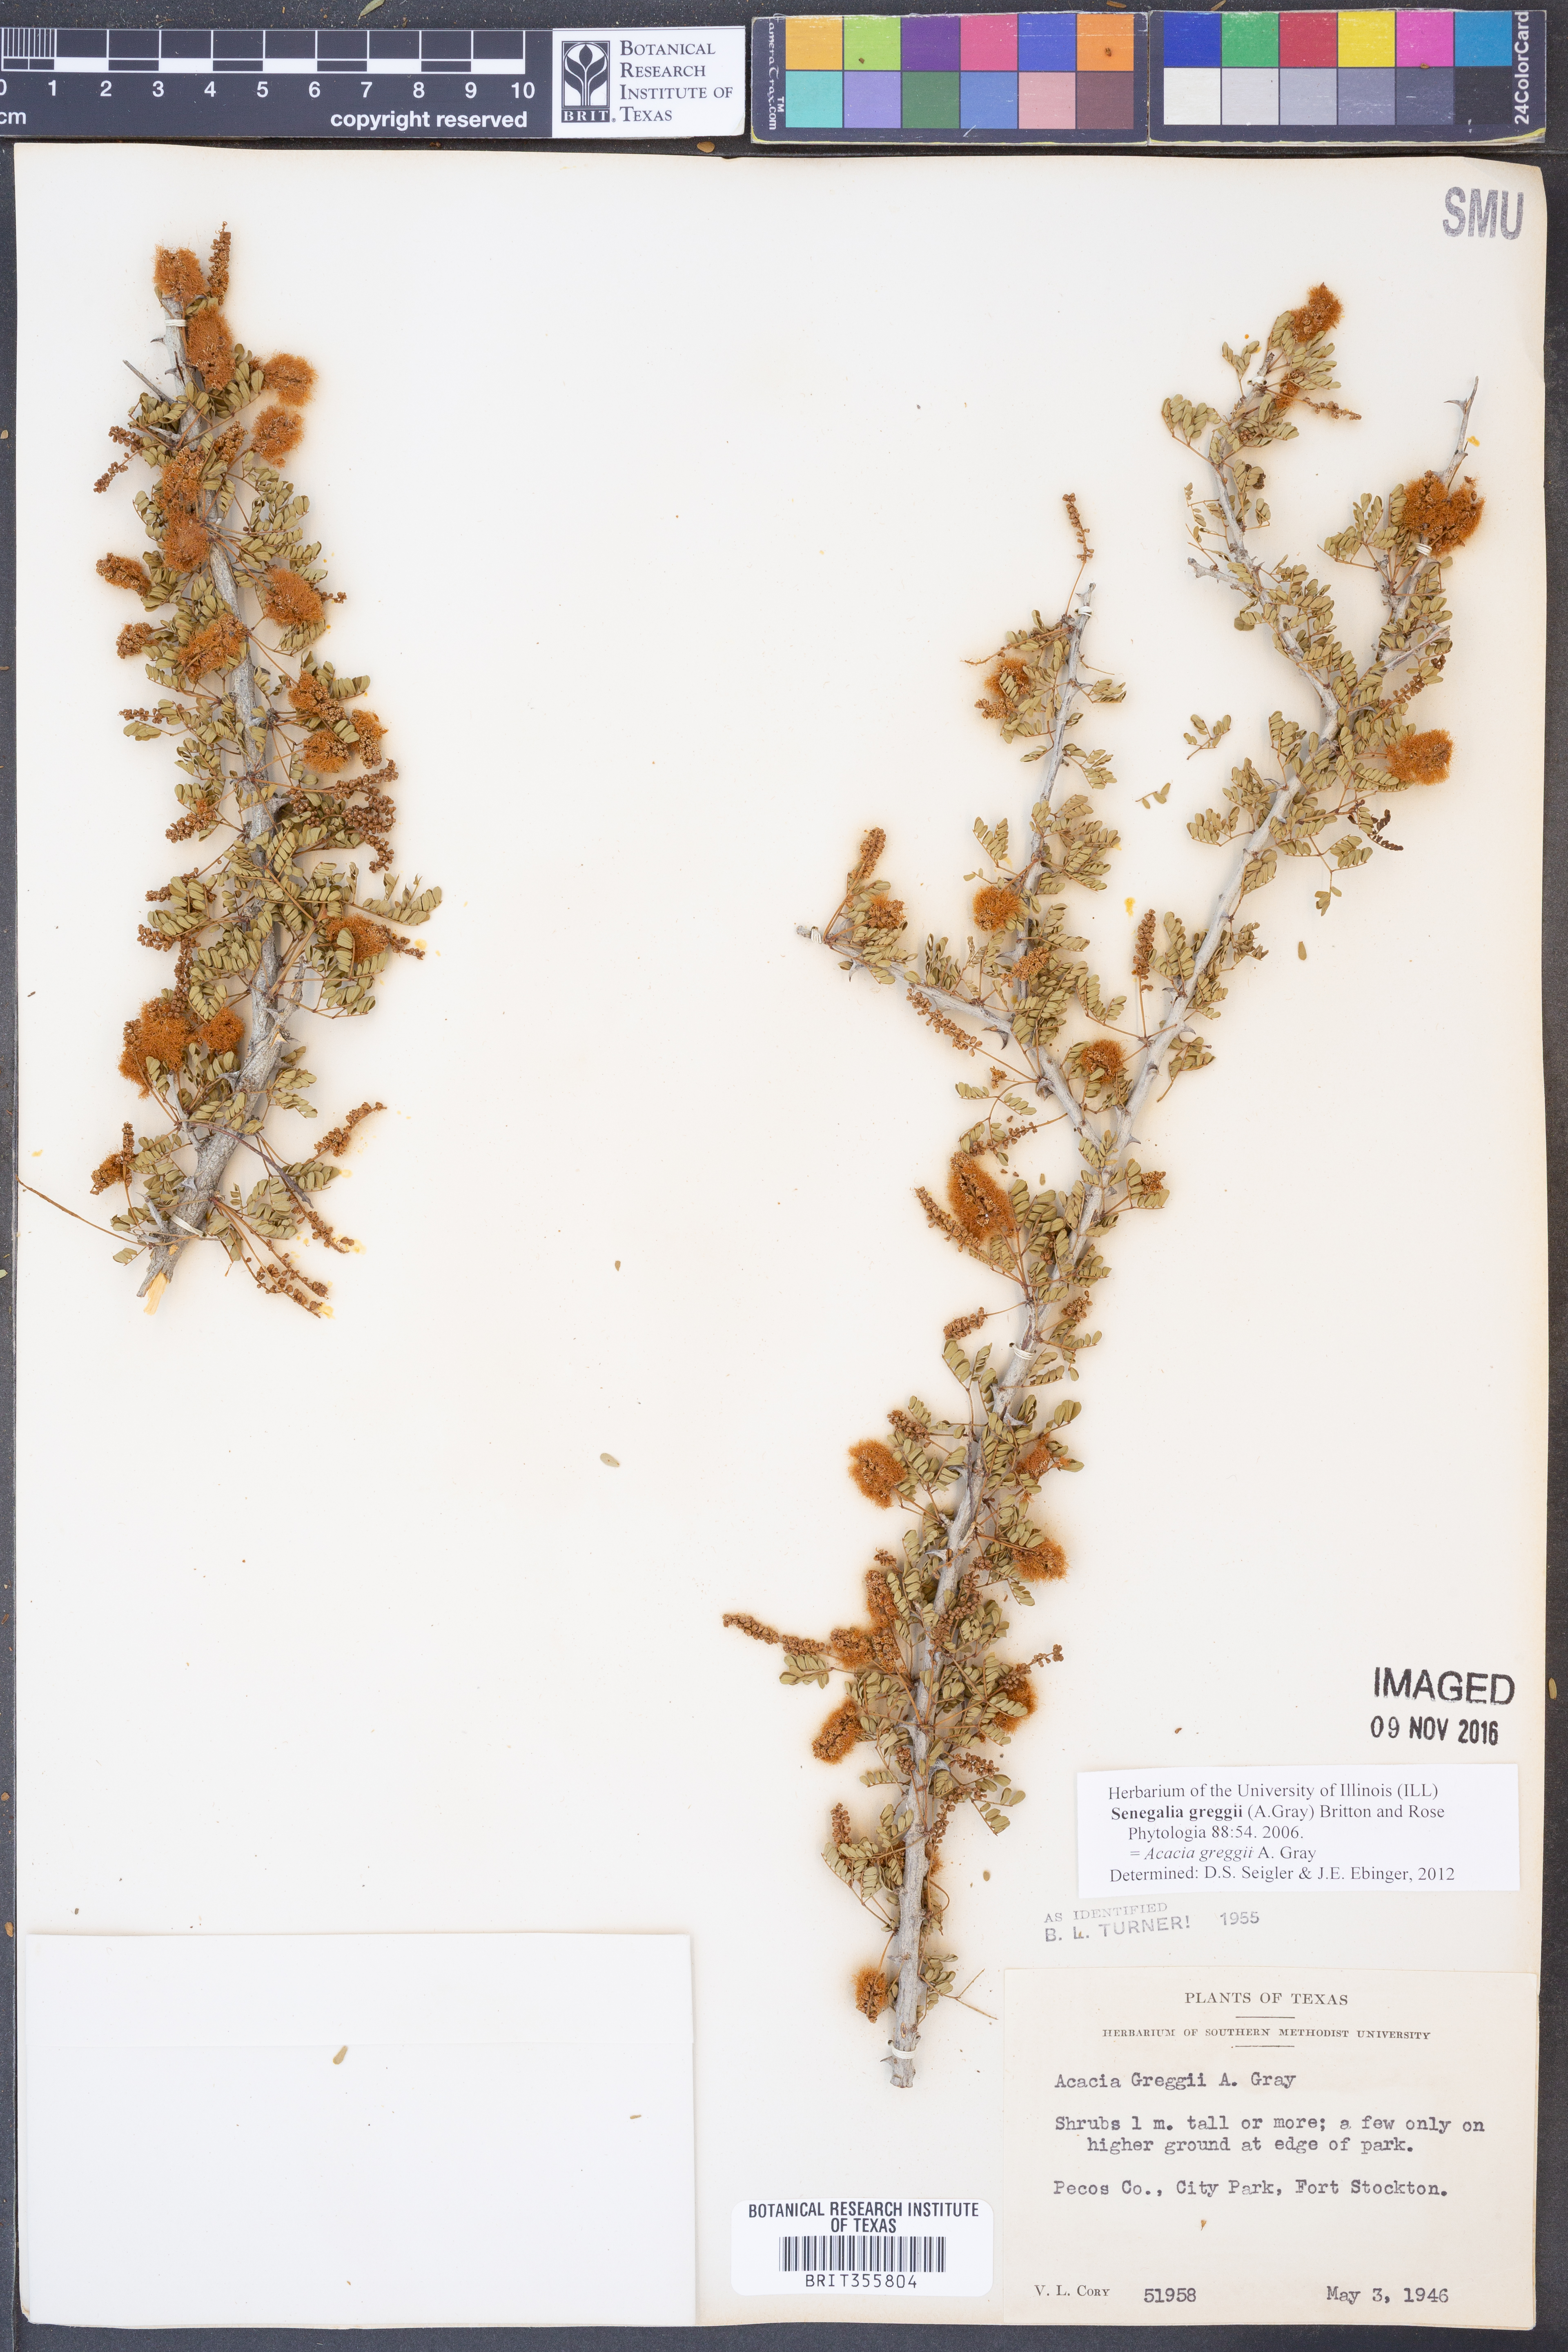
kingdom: Plantae
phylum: Tracheophyta
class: Magnoliopsida
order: Fabales
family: Fabaceae
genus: Senegalia
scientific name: Senegalia greggii
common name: Texas-mimosa
